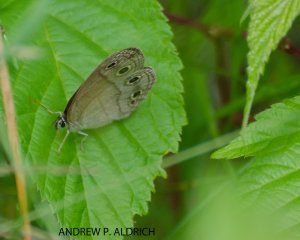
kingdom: Animalia
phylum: Arthropoda
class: Insecta
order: Lepidoptera
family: Nymphalidae
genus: Euptychia
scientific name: Euptychia cymela
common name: Little Wood Satyr
